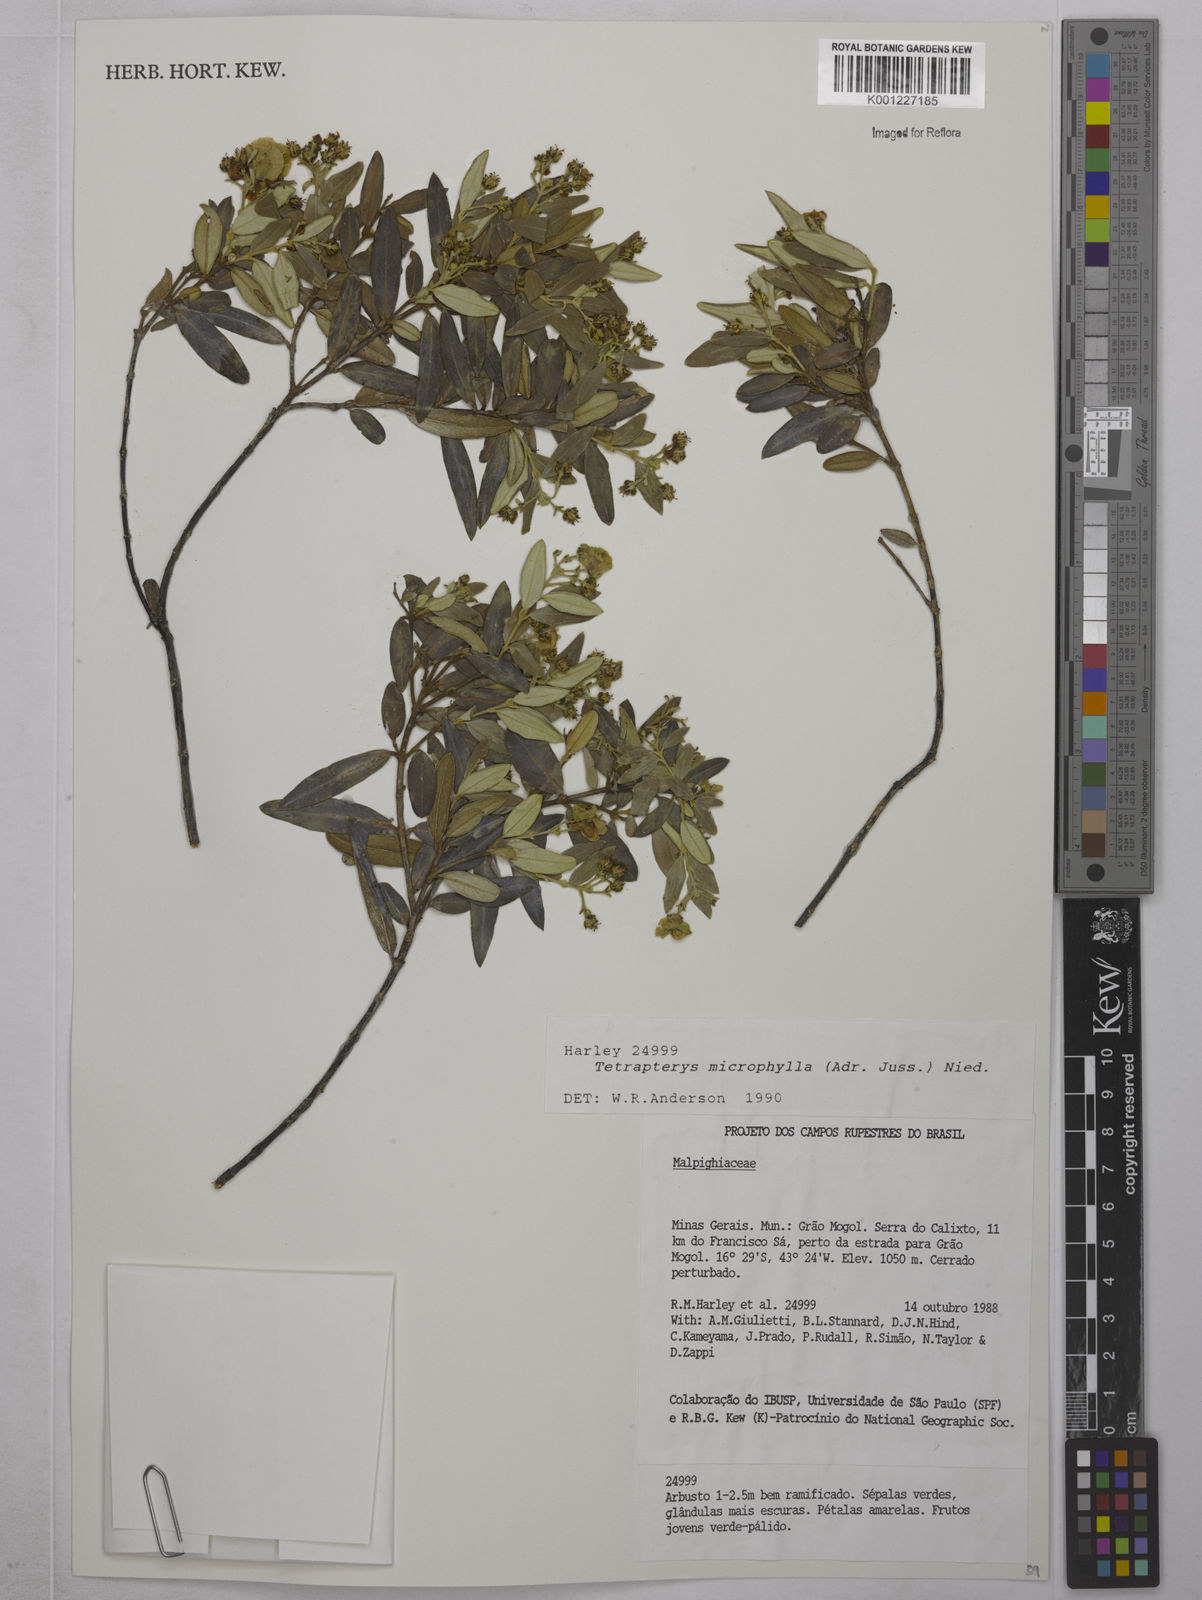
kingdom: Plantae
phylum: Tracheophyta
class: Magnoliopsida
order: Malpighiales
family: Malpighiaceae
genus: Glicophyllum
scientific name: Glicophyllum microphyllum
